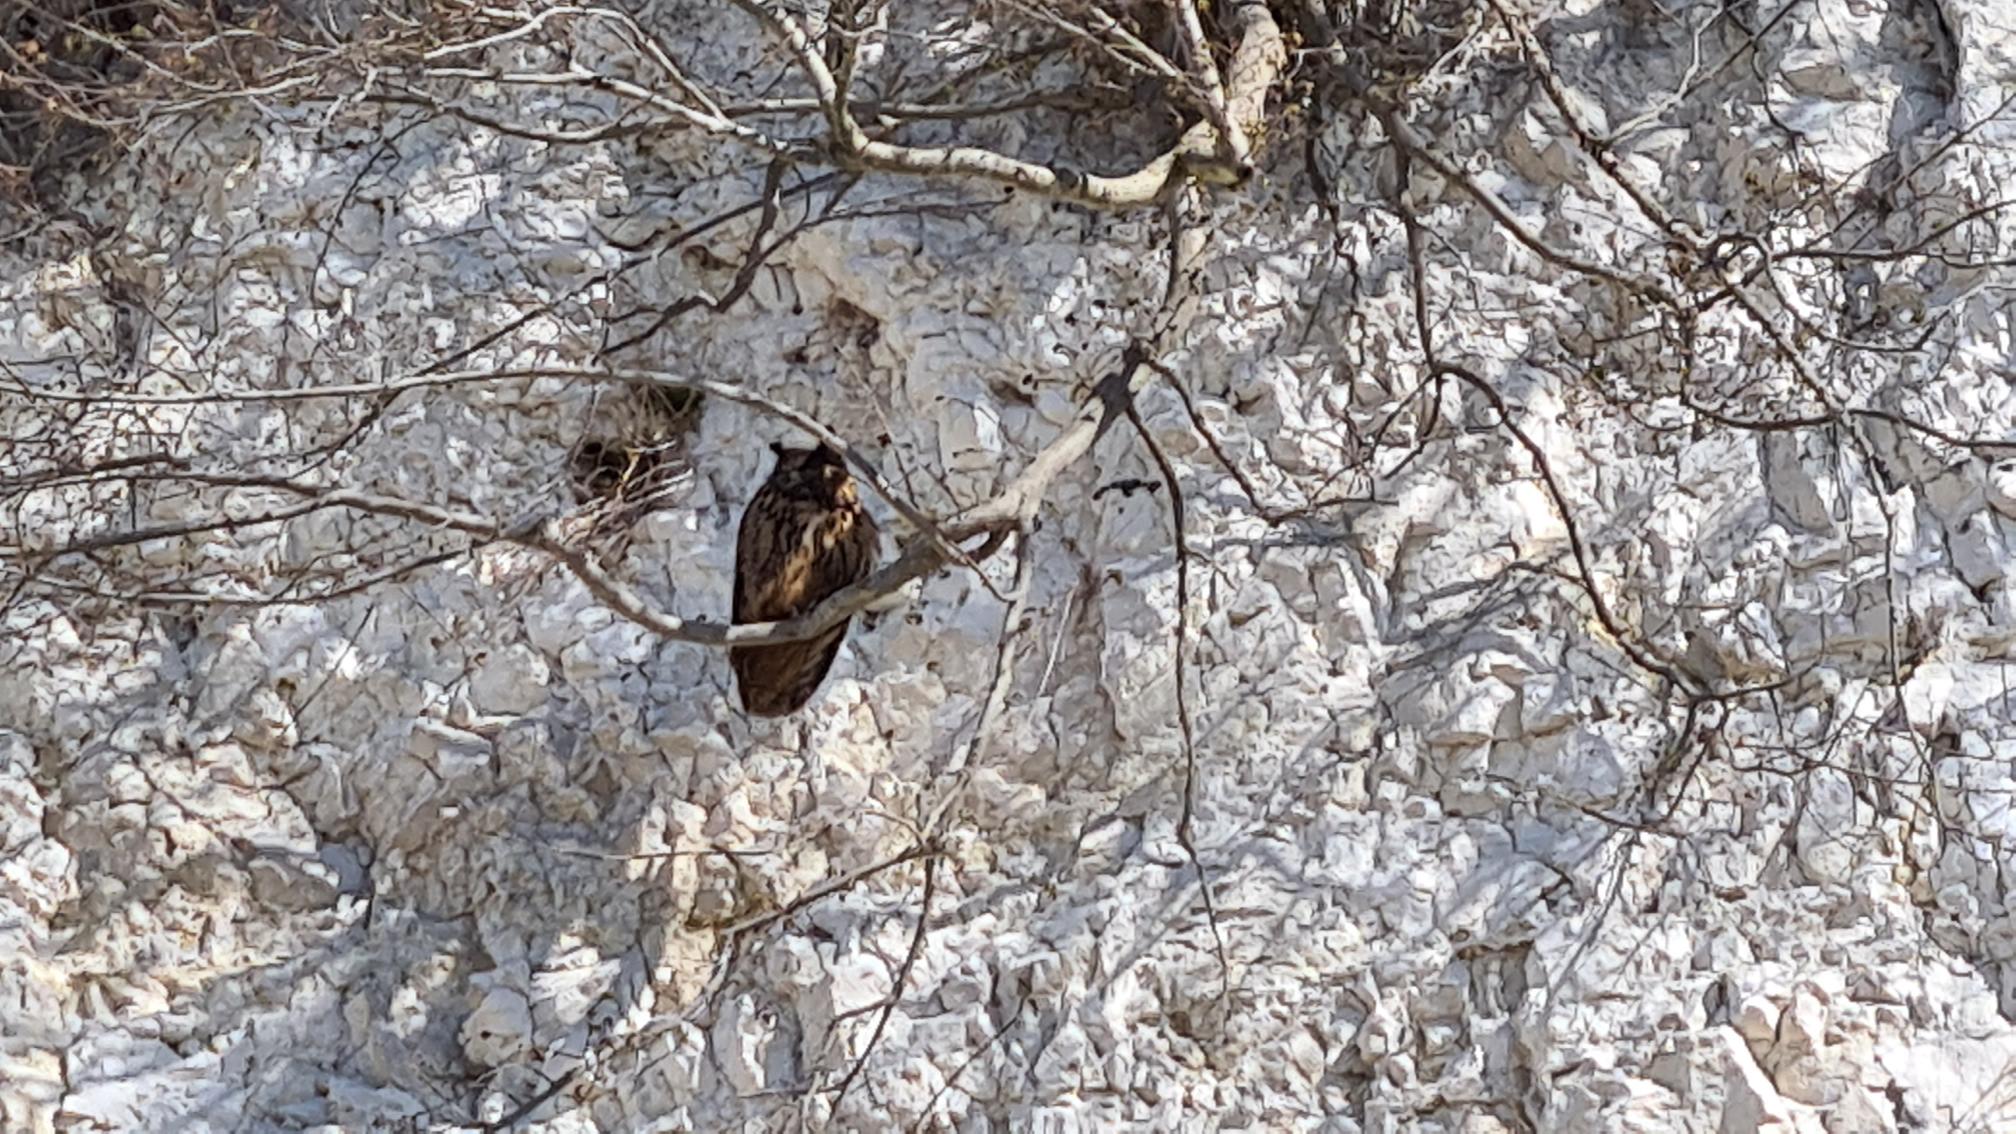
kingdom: Animalia
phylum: Chordata
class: Aves
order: Strigiformes
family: Strigidae
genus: Bubo
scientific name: Bubo bubo
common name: Stor hornugle
